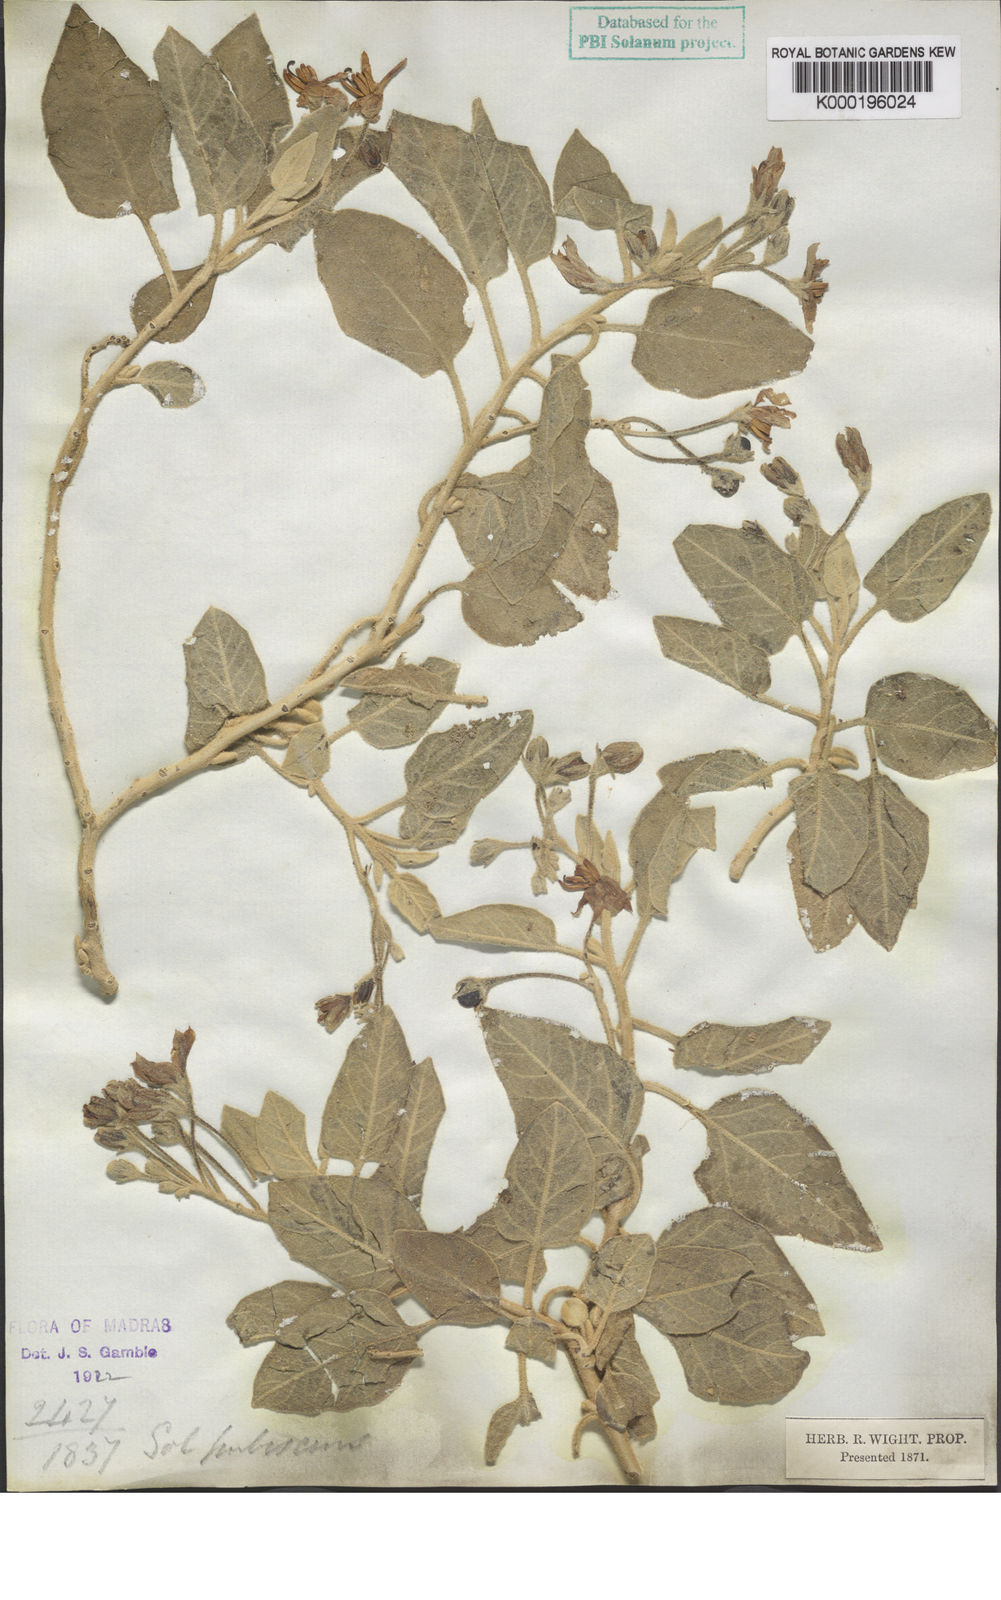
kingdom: Plantae
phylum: Tracheophyta
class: Magnoliopsida
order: Solanales
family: Solanaceae
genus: Solanum
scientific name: Solanum pubescens
